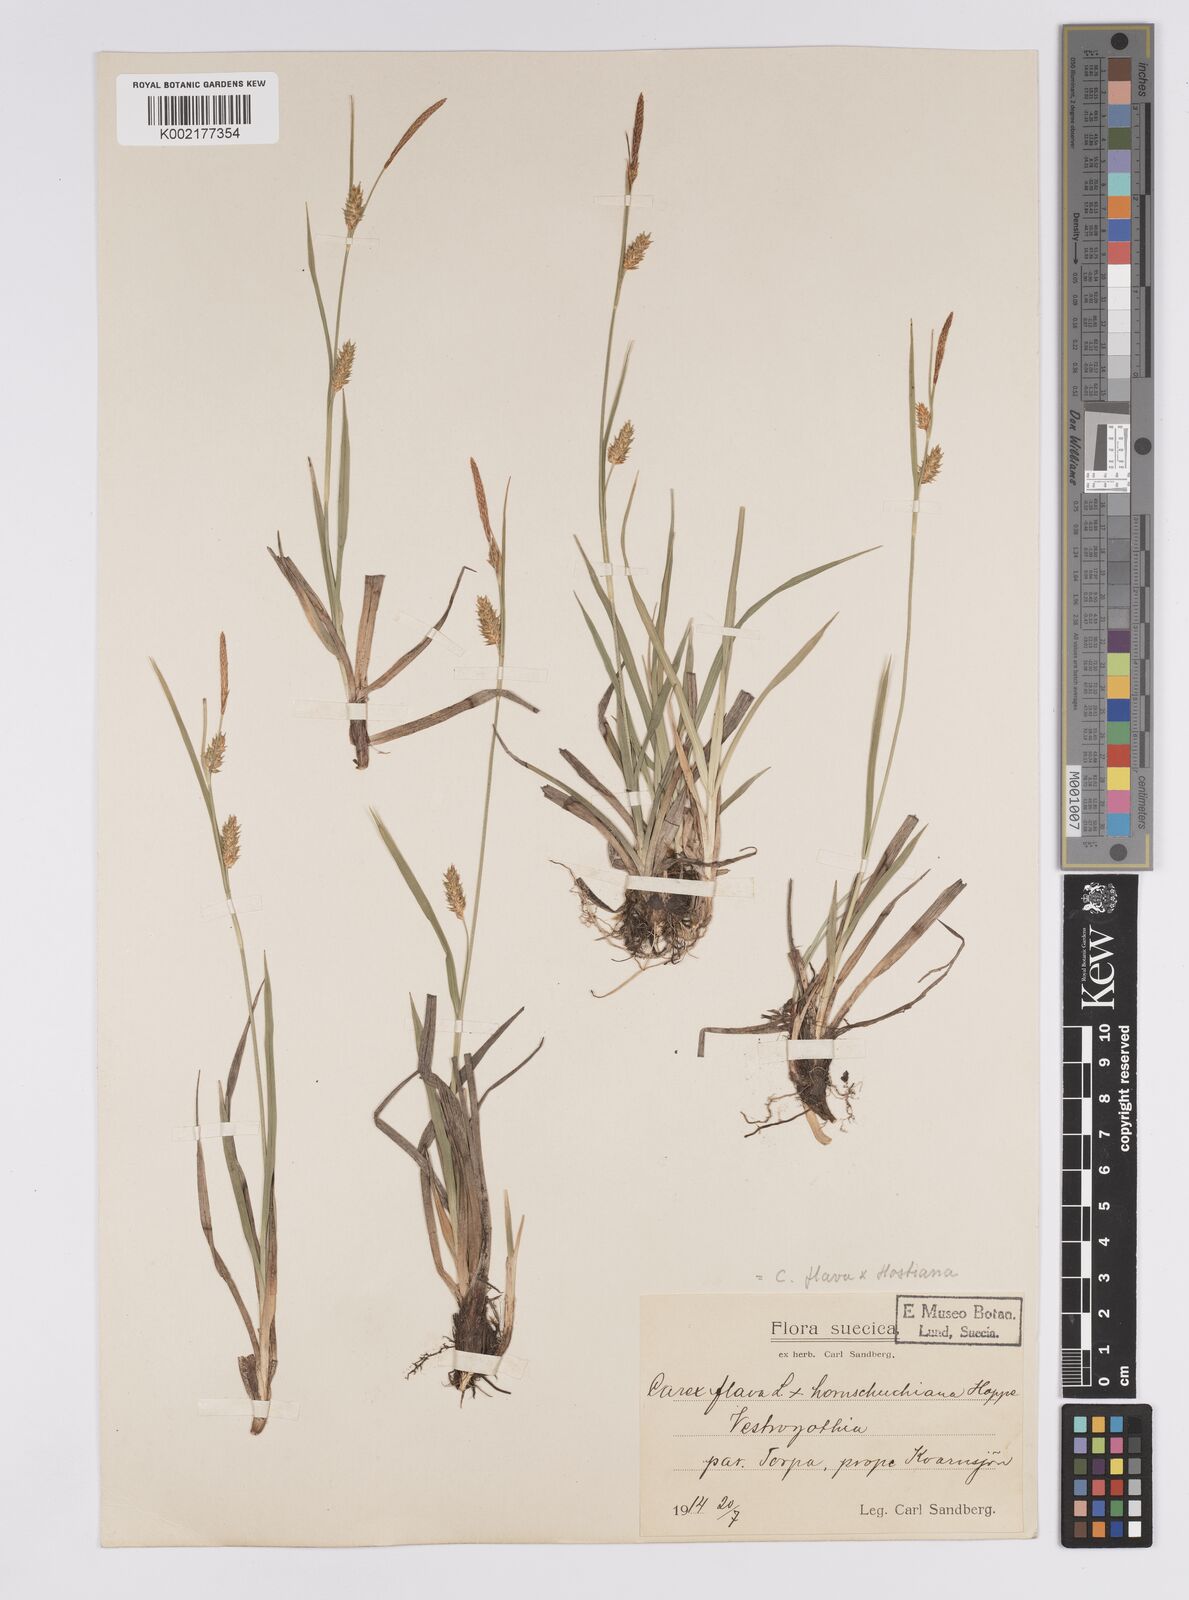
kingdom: Plantae
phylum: Tracheophyta
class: Liliopsida
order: Poales
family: Cyperaceae
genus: Carex
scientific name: Carex hostiana
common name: Tawny sedge
